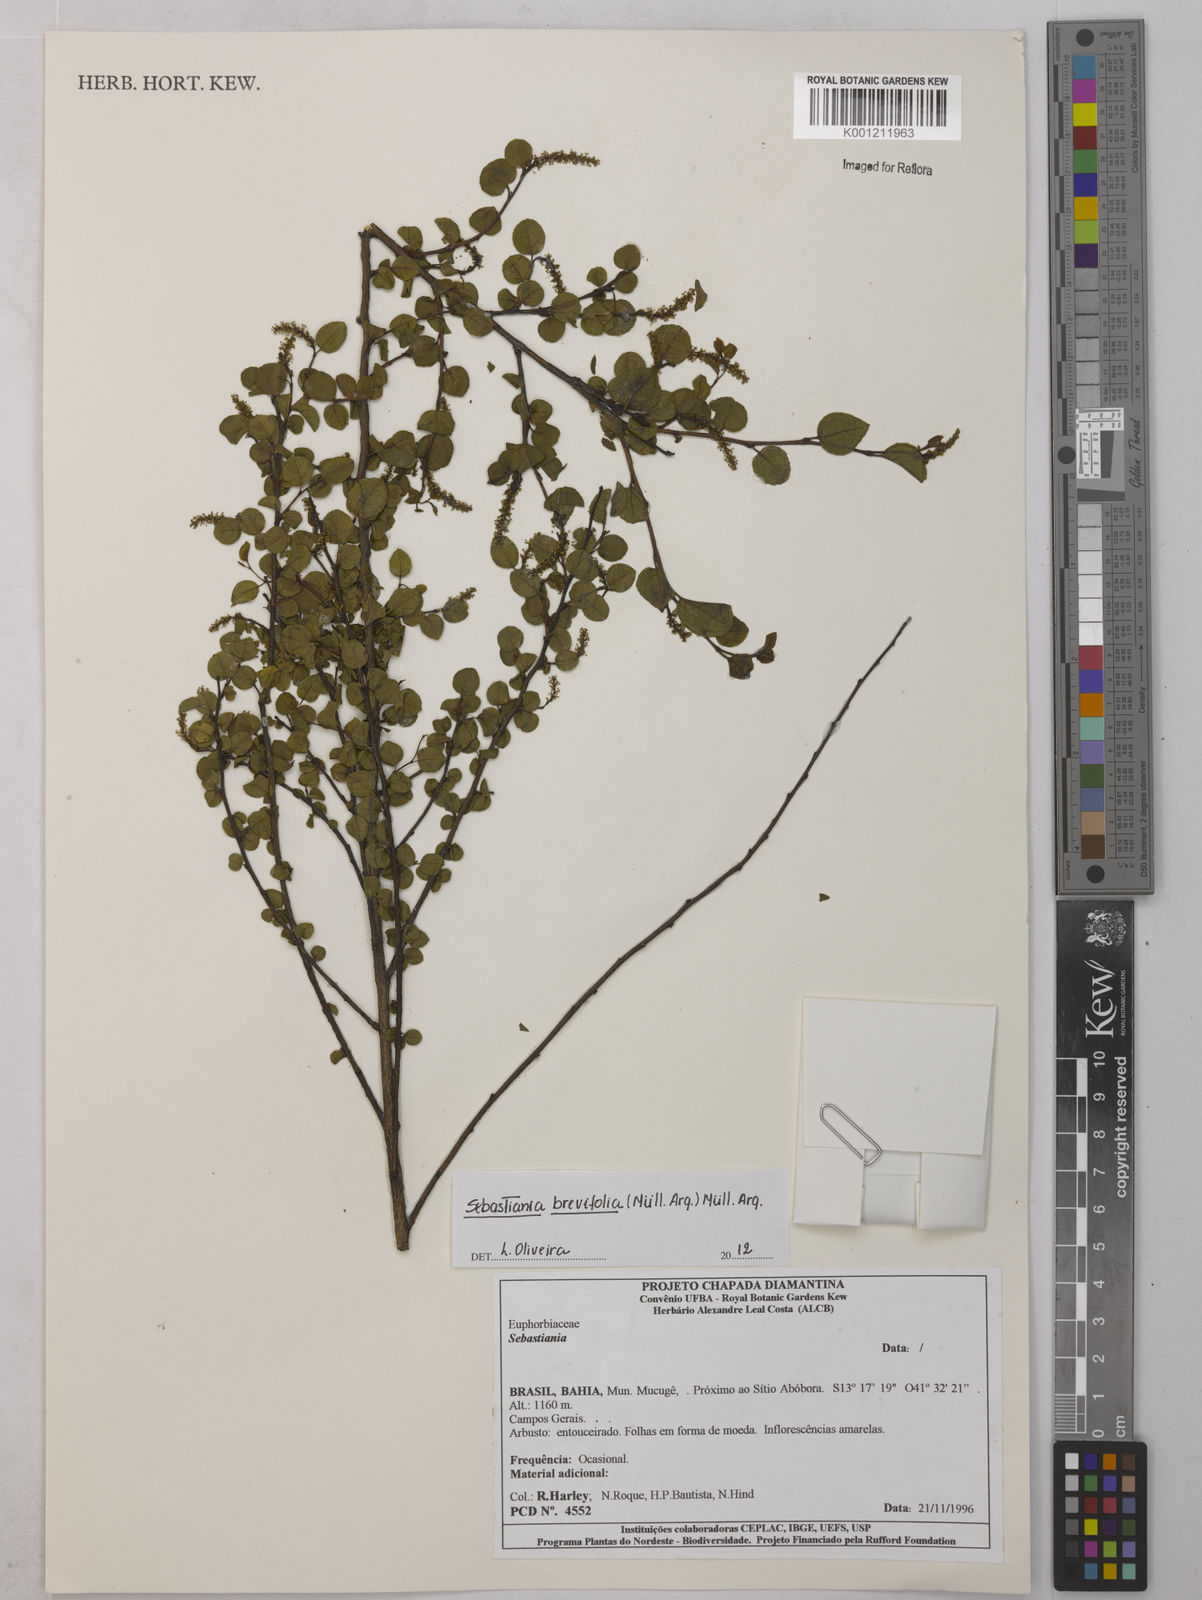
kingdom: Plantae
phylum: Tracheophyta
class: Magnoliopsida
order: Malpighiales
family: Euphorbiaceae
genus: Sebastiania
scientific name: Sebastiania
